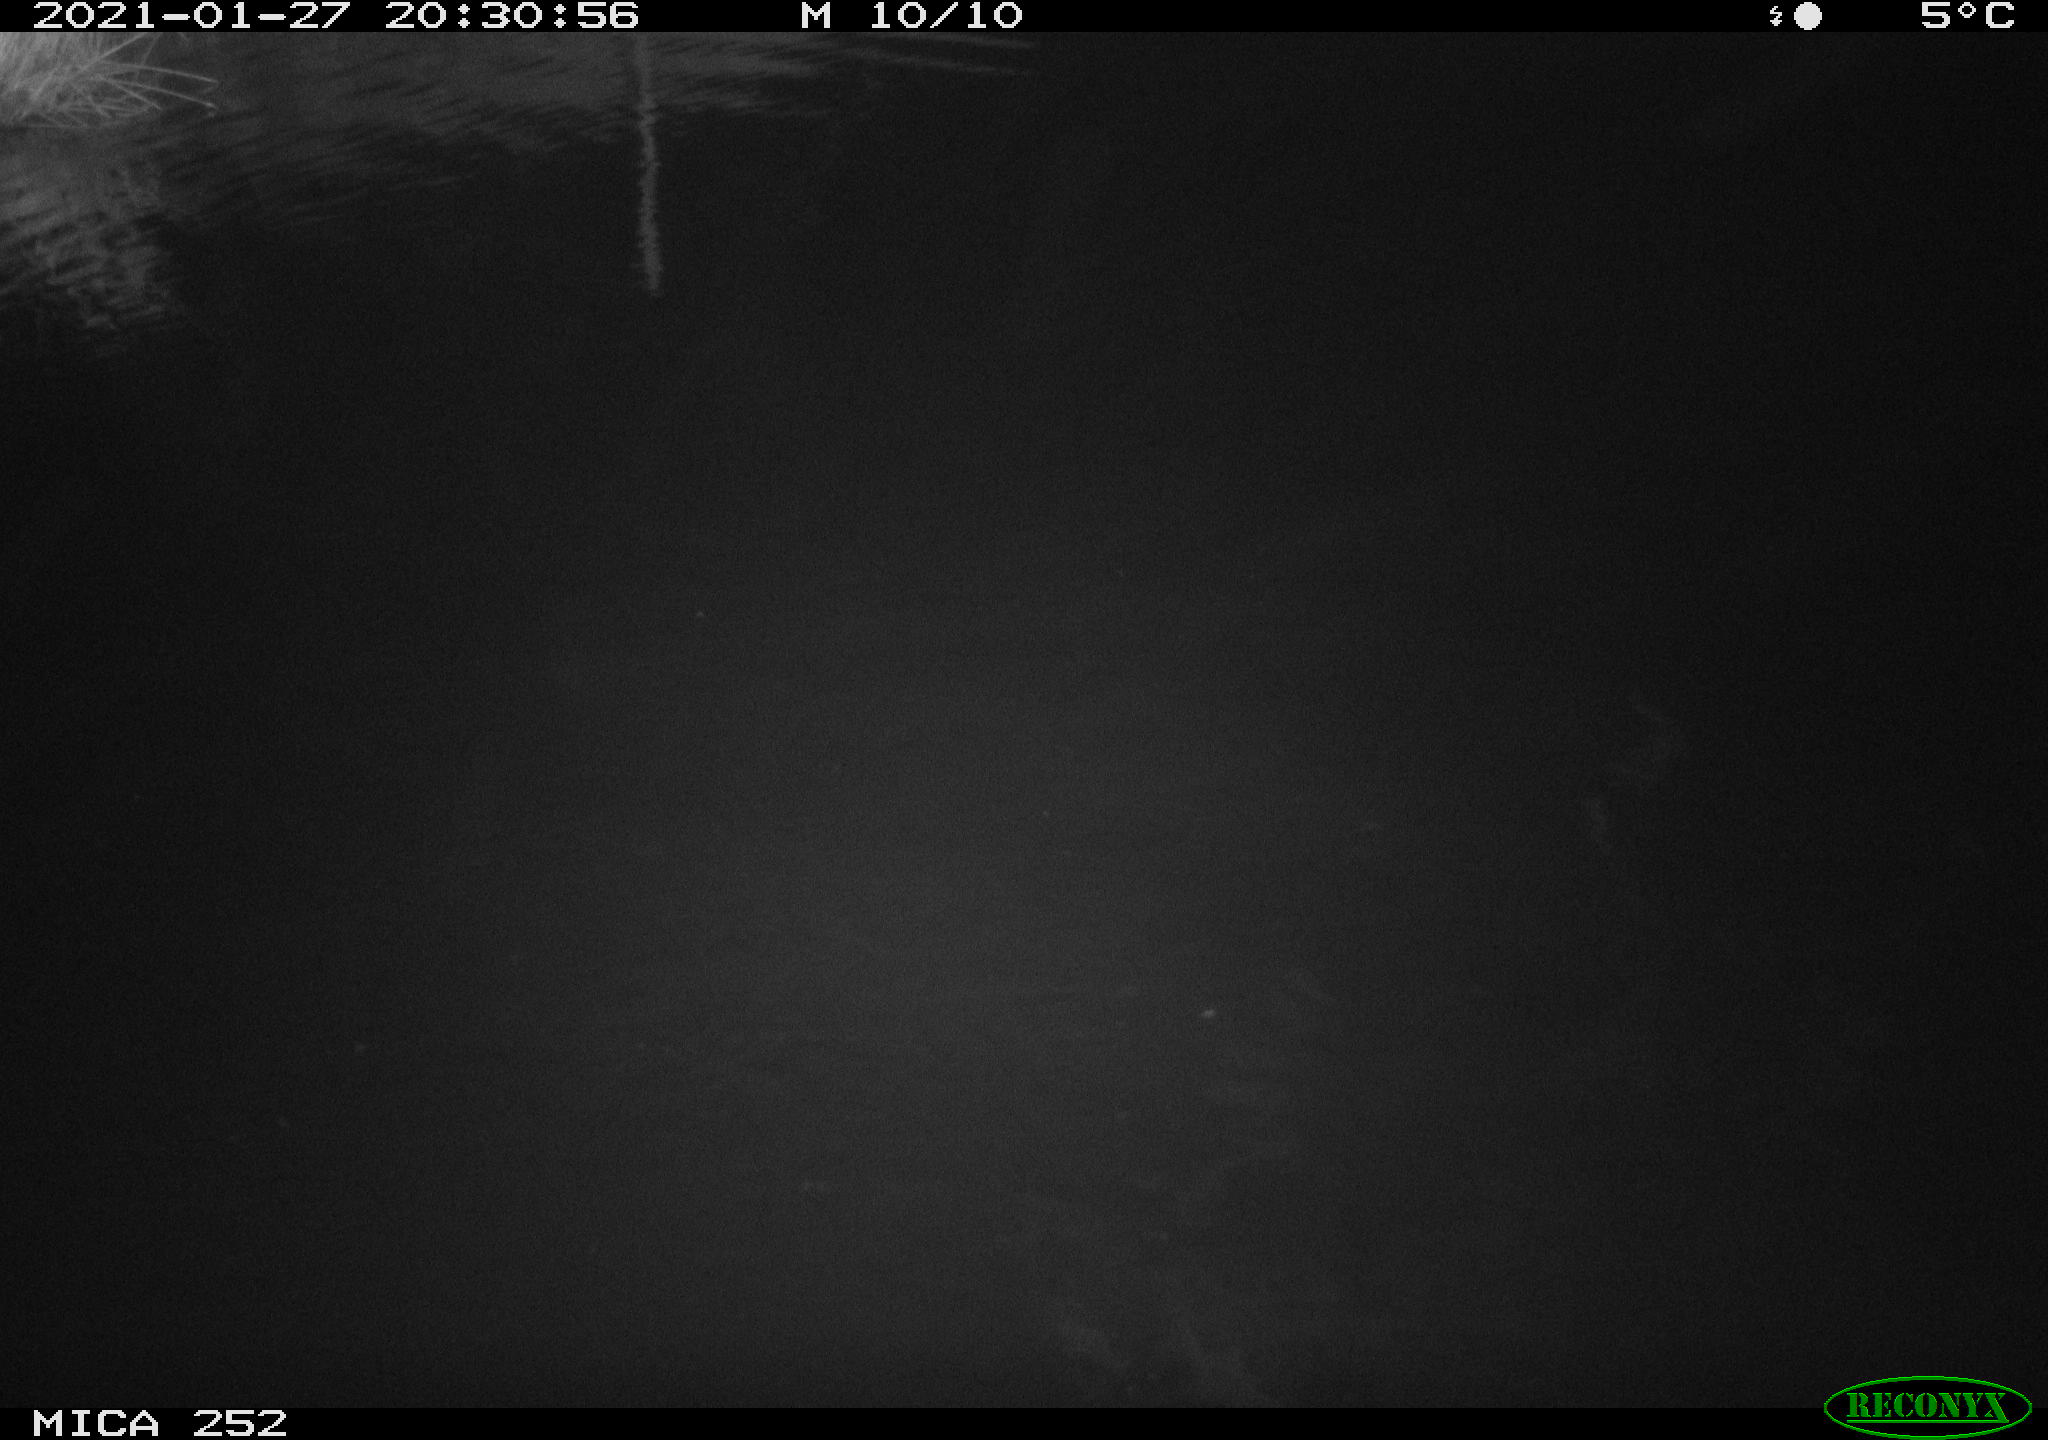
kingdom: Animalia
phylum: Chordata
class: Mammalia
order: Rodentia
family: Castoridae
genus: Castor
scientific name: Castor fiber
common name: Eurasian beaver
